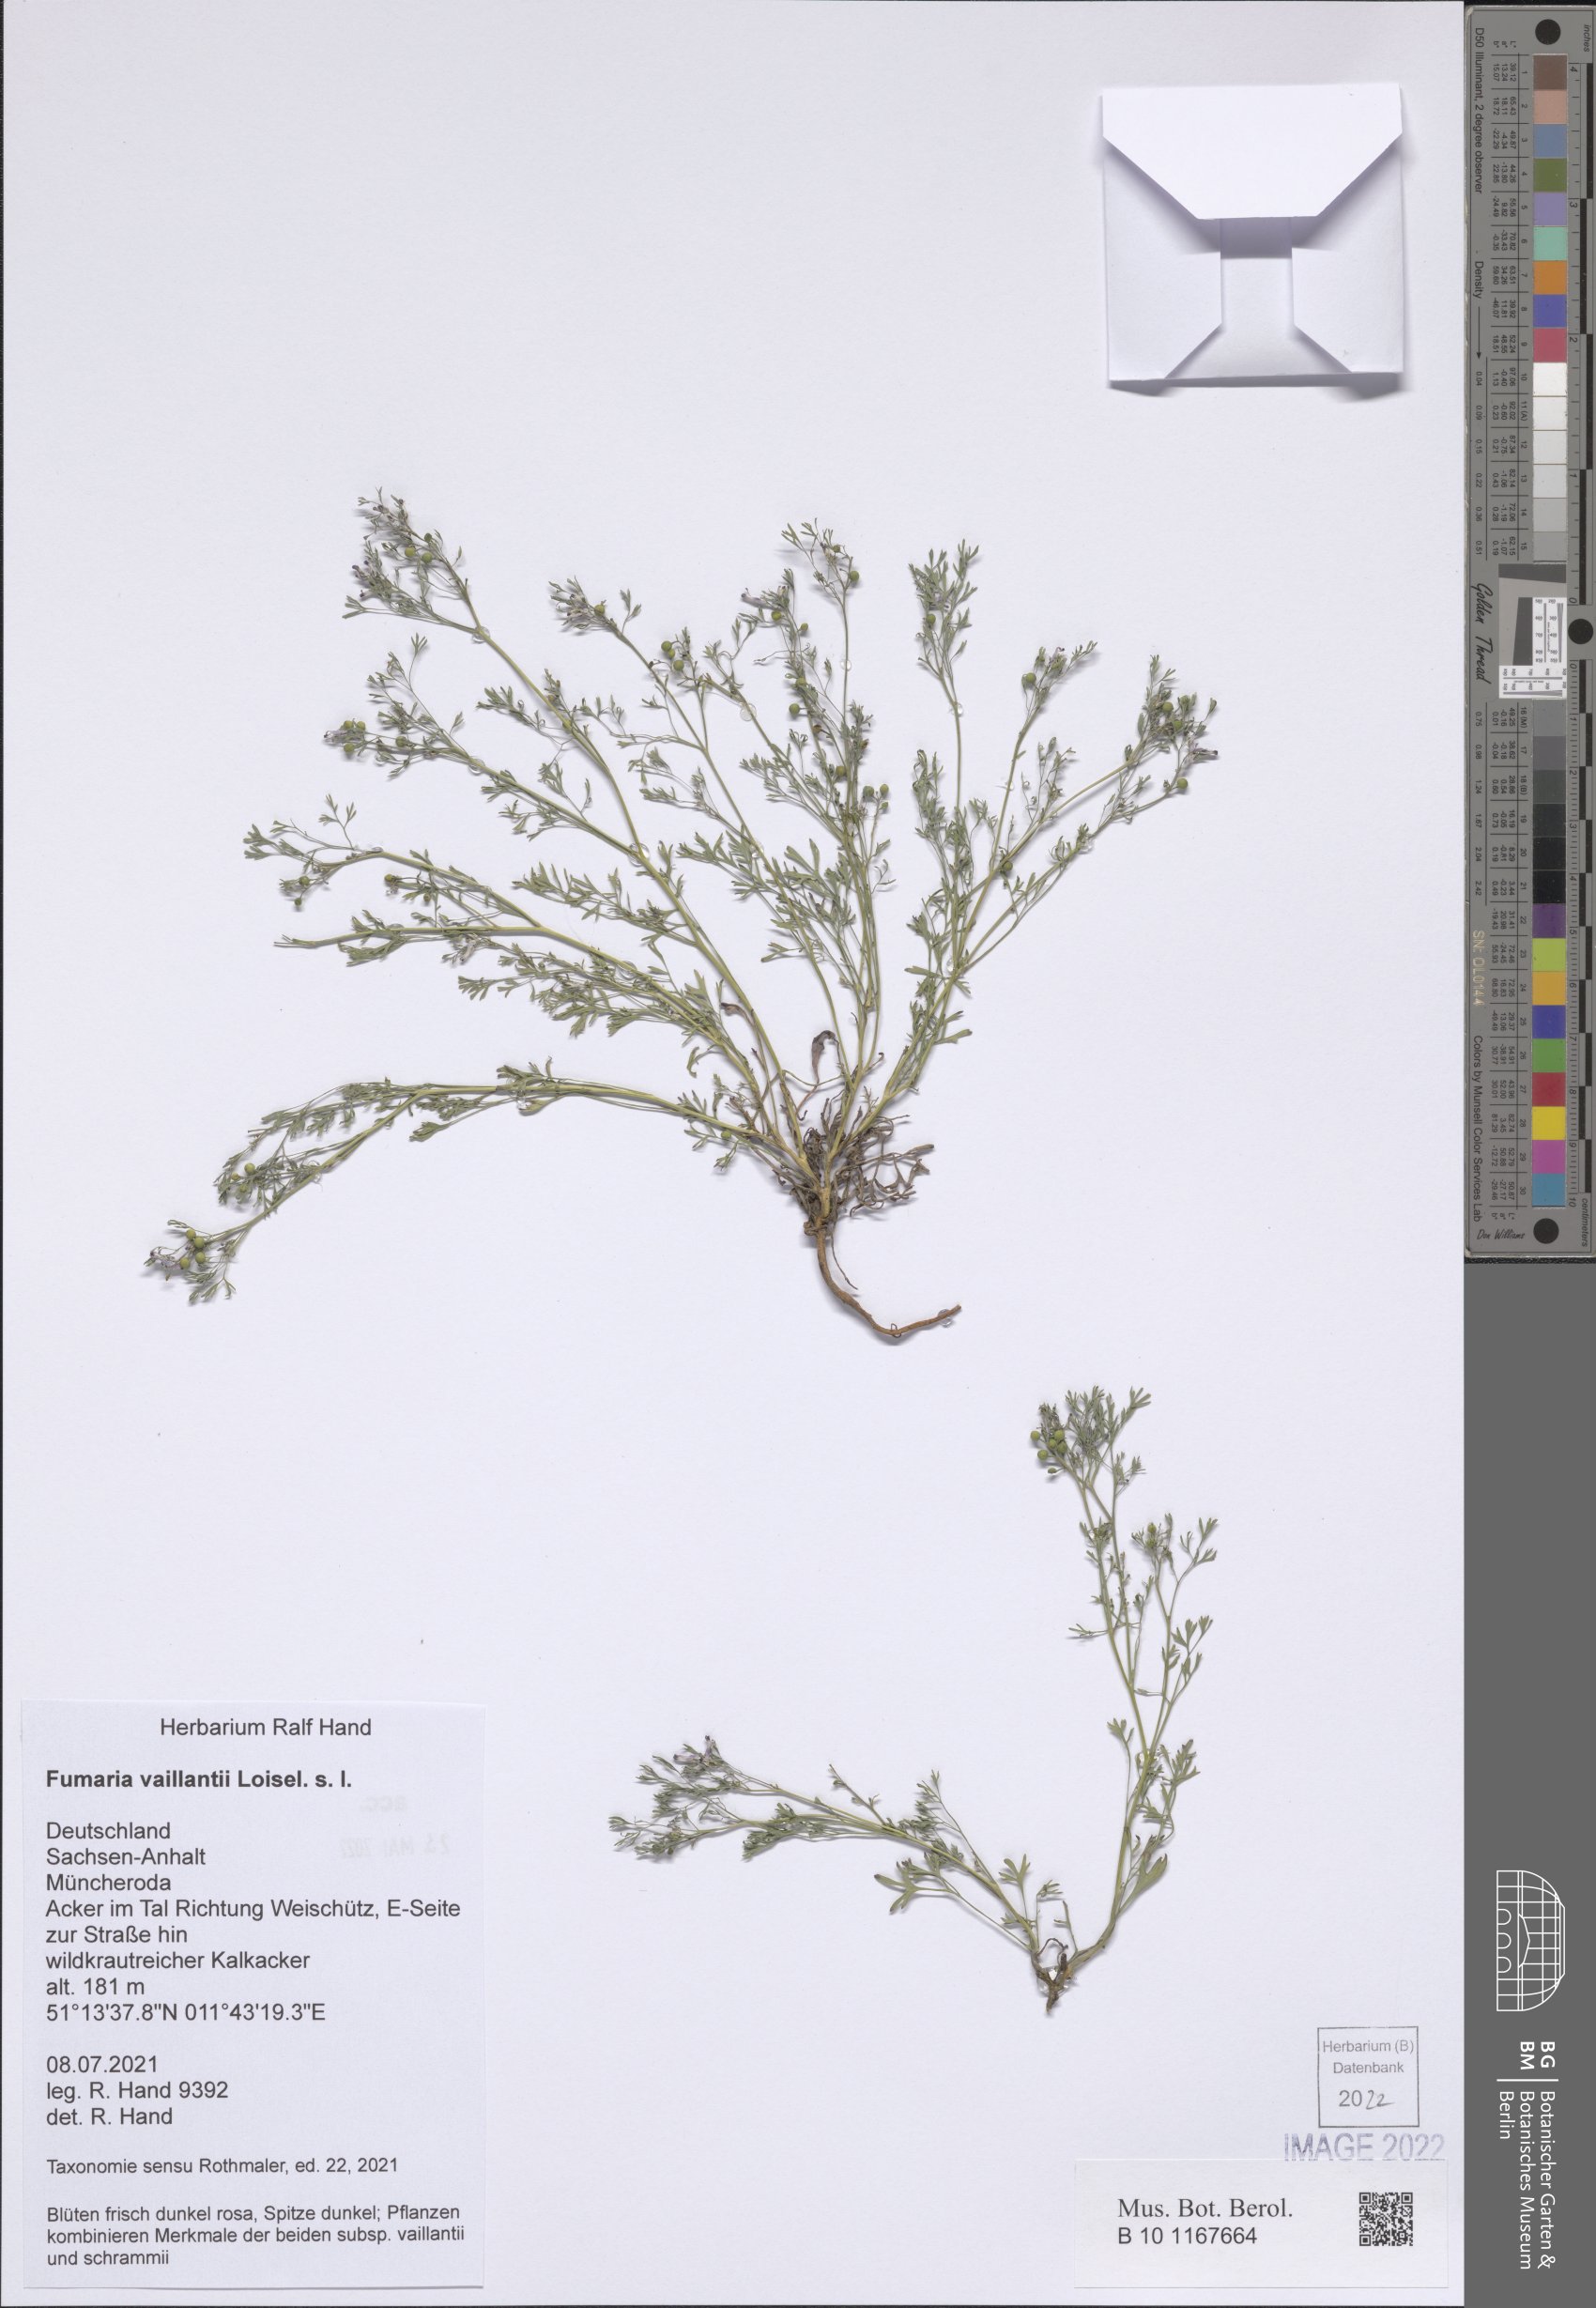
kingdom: Plantae
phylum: Tracheophyta
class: Magnoliopsida
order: Ranunculales
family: Papaveraceae
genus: Fumaria
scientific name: Fumaria vaillantii
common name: Few-flowered fumitory
